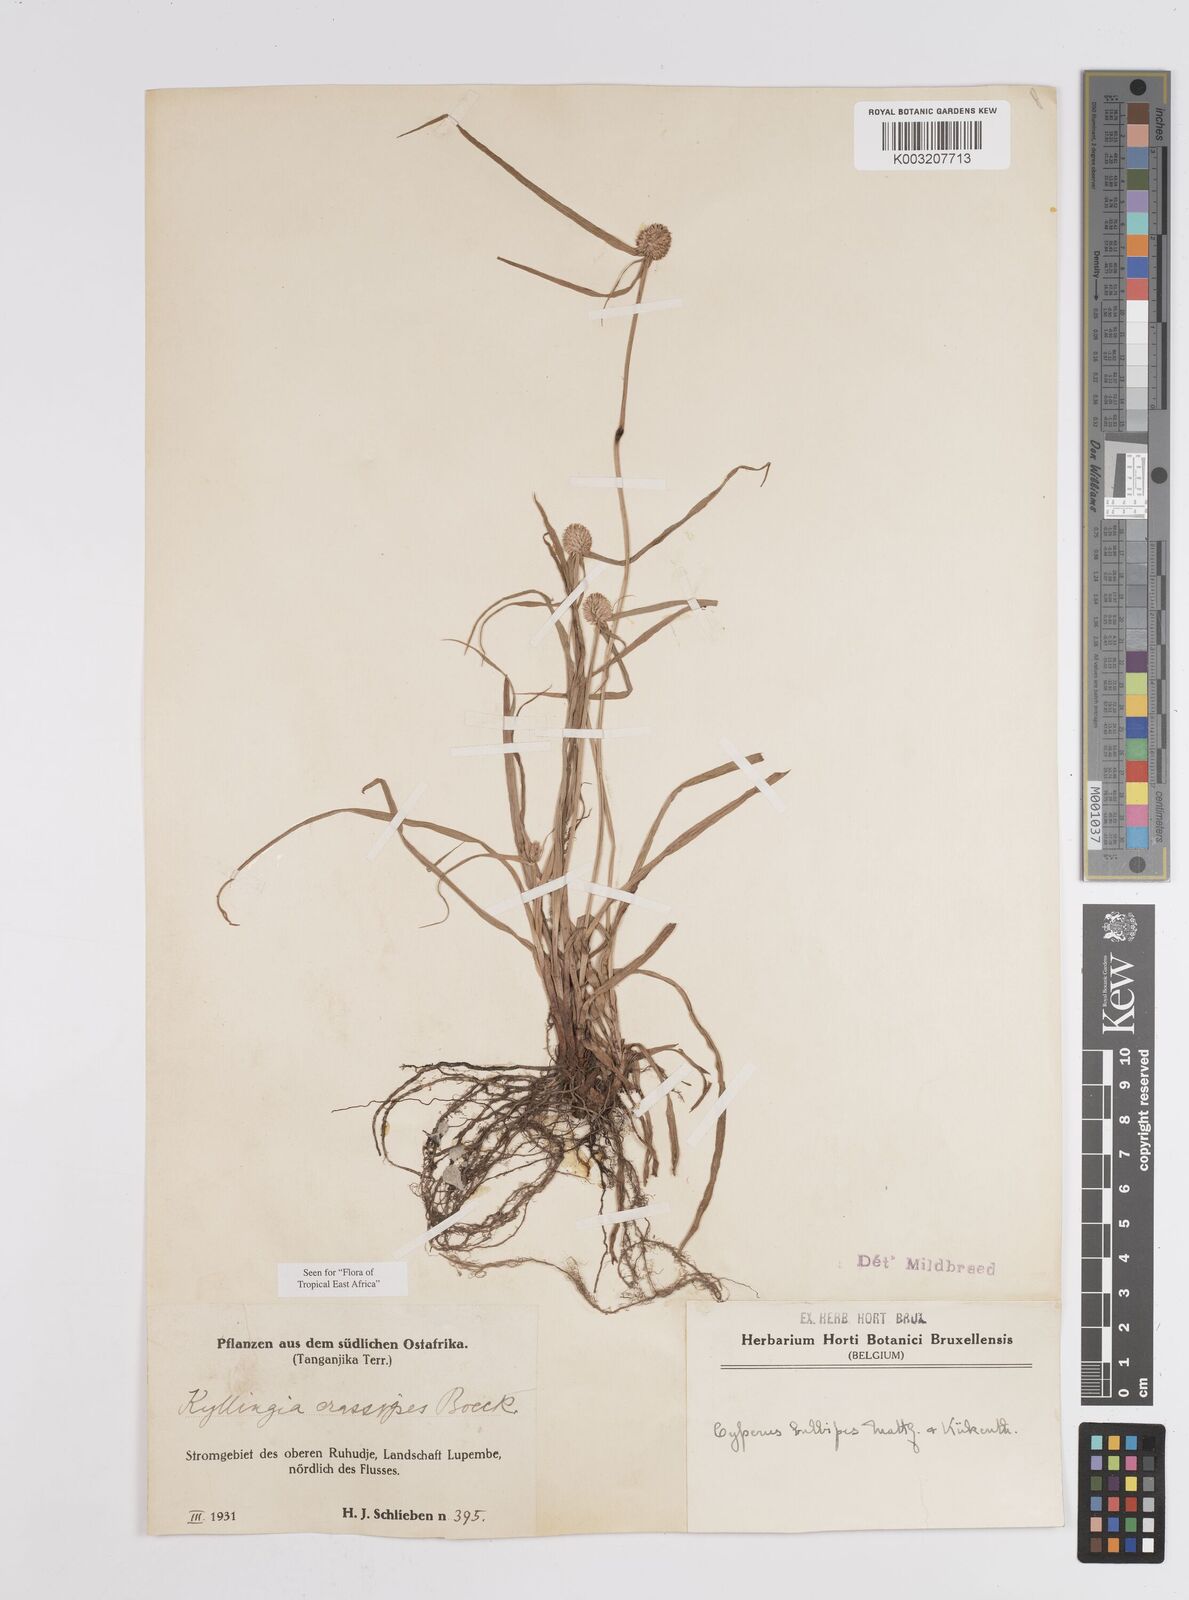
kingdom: Plantae
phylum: Tracheophyta
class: Liliopsida
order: Poales
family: Cyperaceae
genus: Cyperus
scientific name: Cyperus
